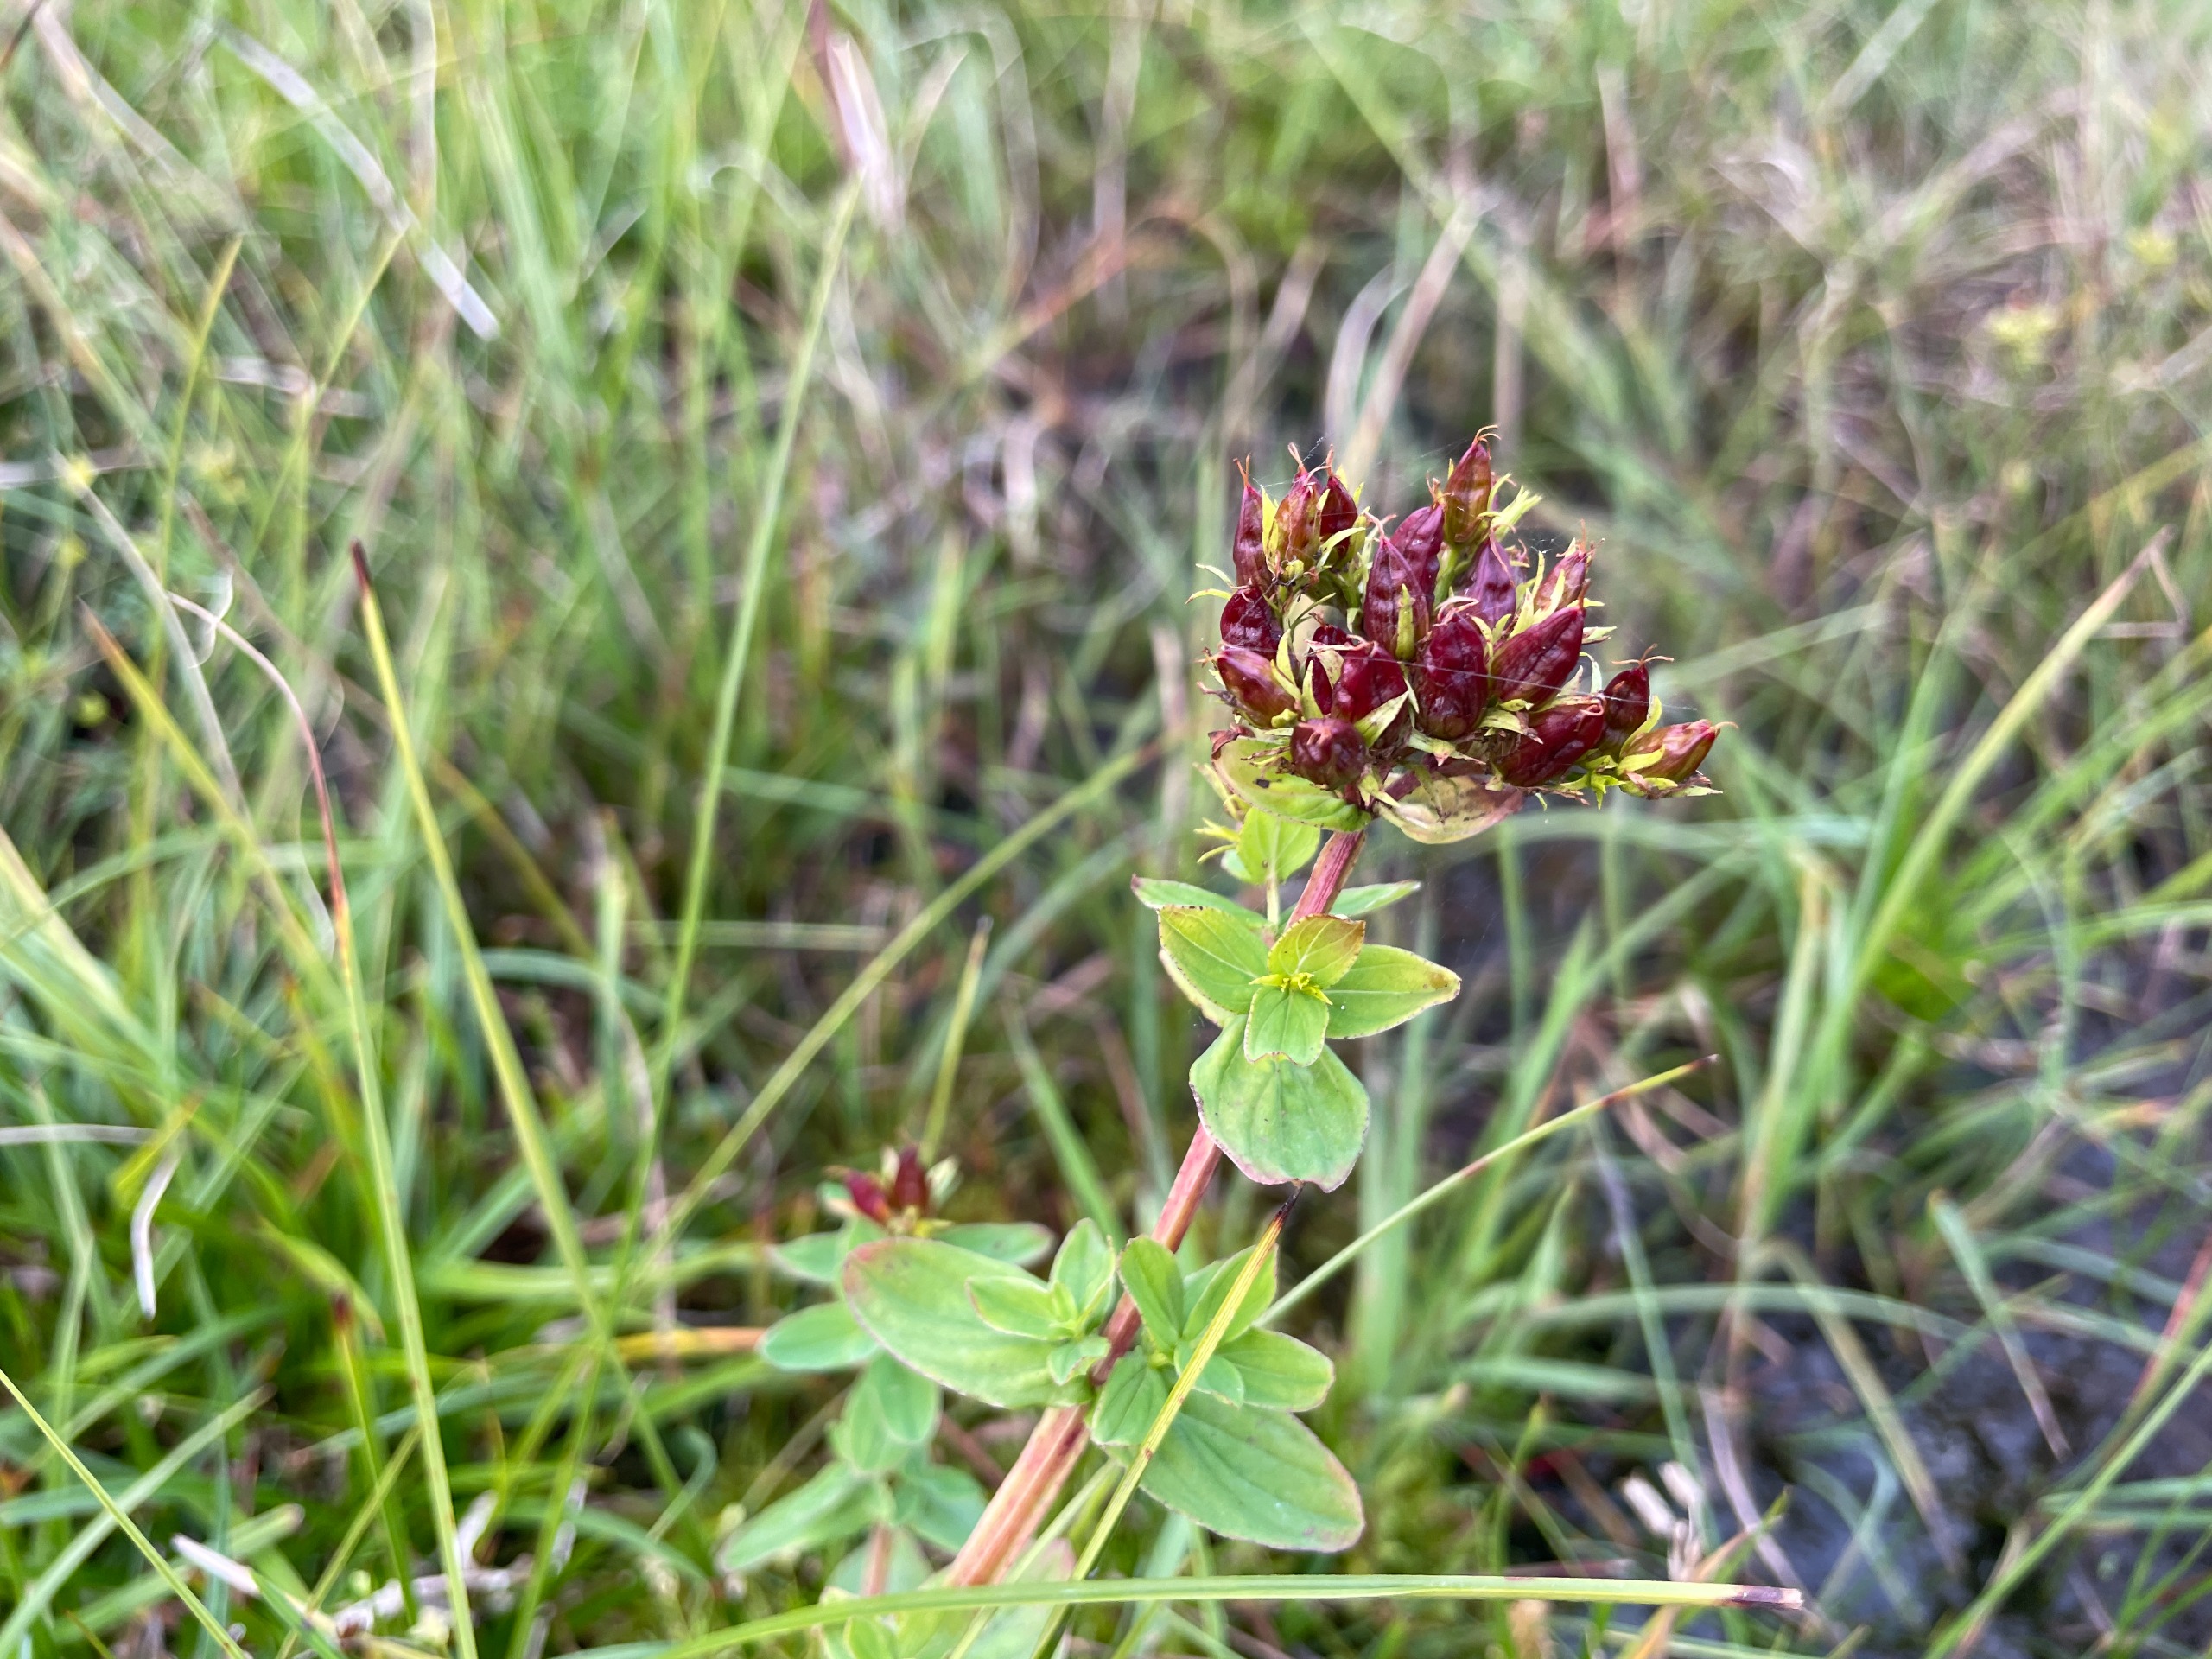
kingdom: Plantae
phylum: Tracheophyta
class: Magnoliopsida
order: Malpighiales
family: Hypericaceae
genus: Hypericum
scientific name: Hypericum tetrapterum
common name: Vinget perikon
